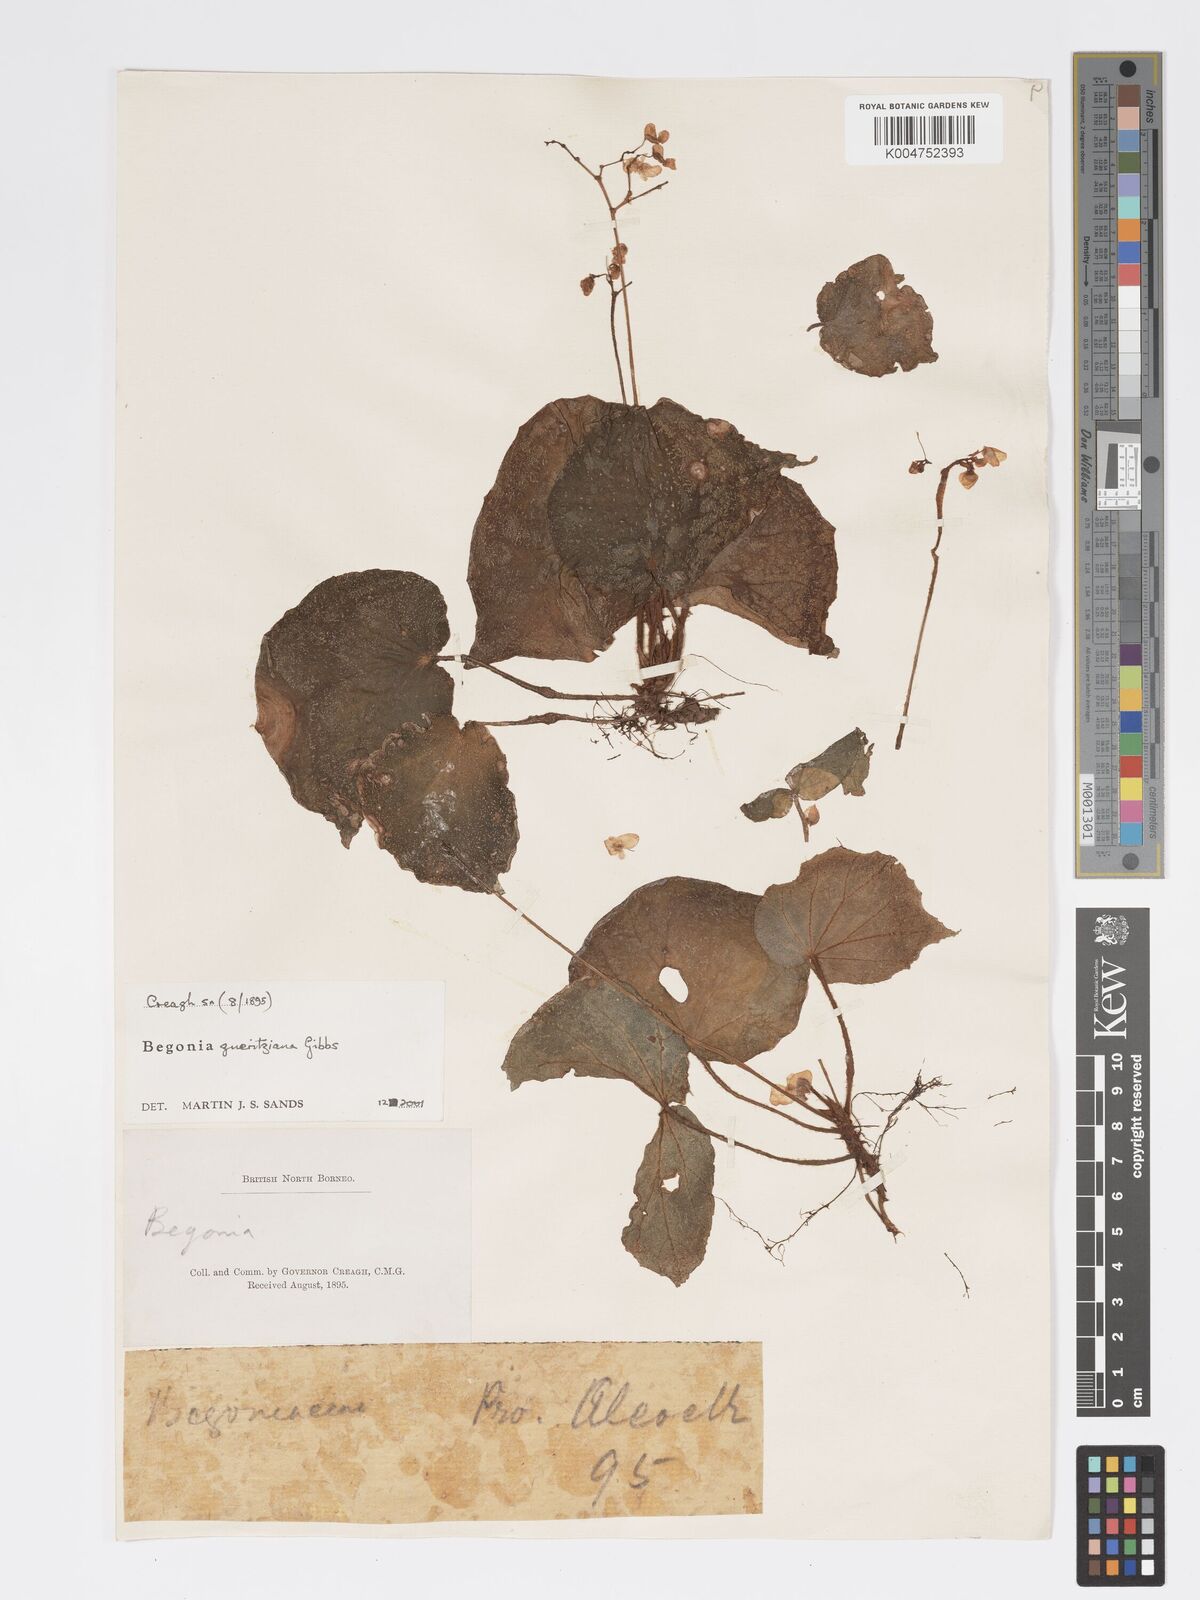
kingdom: Plantae
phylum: Tracheophyta
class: Magnoliopsida
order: Cucurbitales
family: Begoniaceae
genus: Begonia
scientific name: Begonia gueritziana
